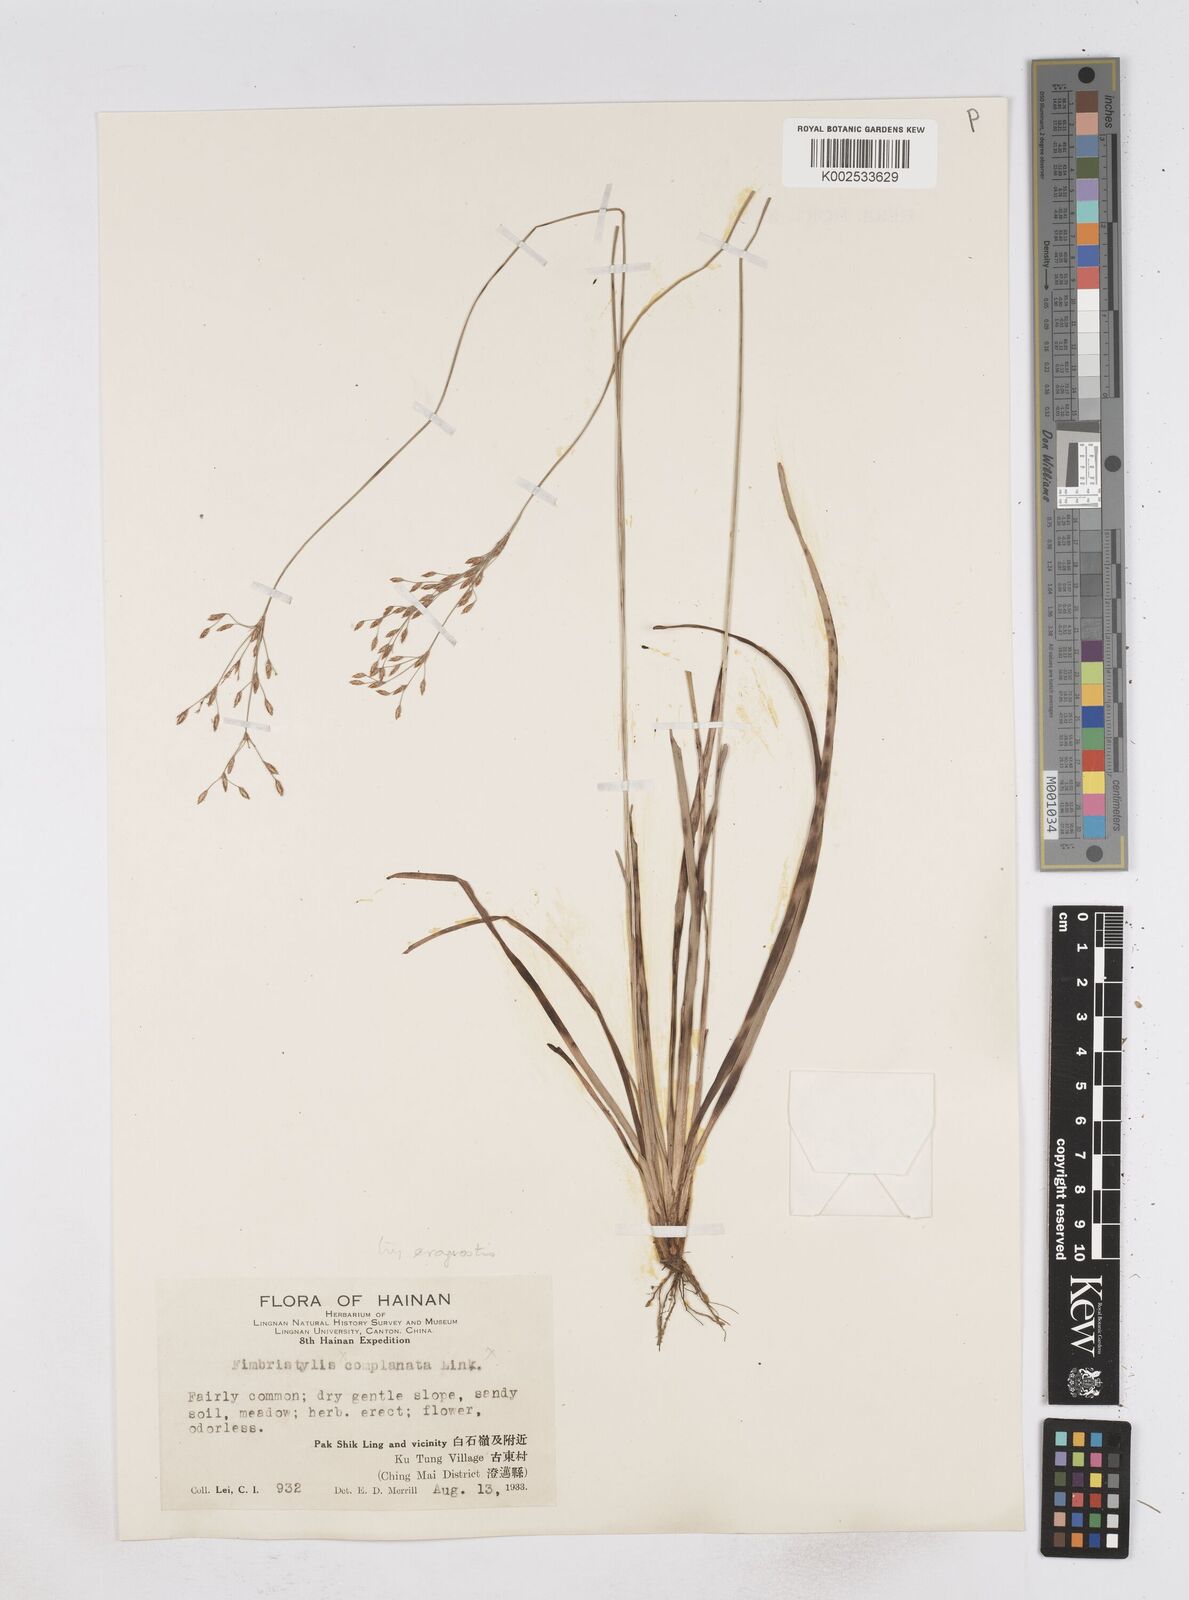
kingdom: Plantae
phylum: Tracheophyta
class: Liliopsida
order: Poales
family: Cyperaceae
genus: Fimbristylis
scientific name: Fimbristylis eragrostis
